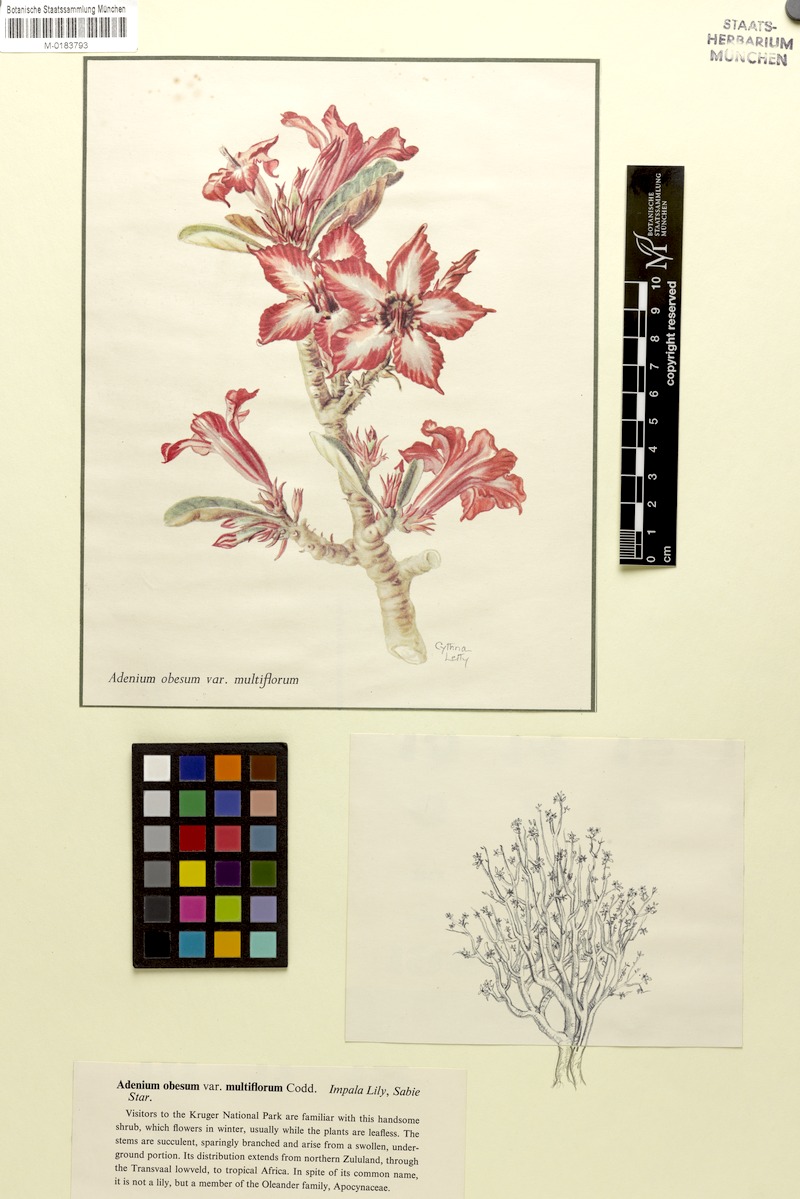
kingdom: Plantae
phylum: Tracheophyta
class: Magnoliopsida
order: Gentianales
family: Apocynaceae
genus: Adenium
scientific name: Adenium obesum
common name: Desert-rose
